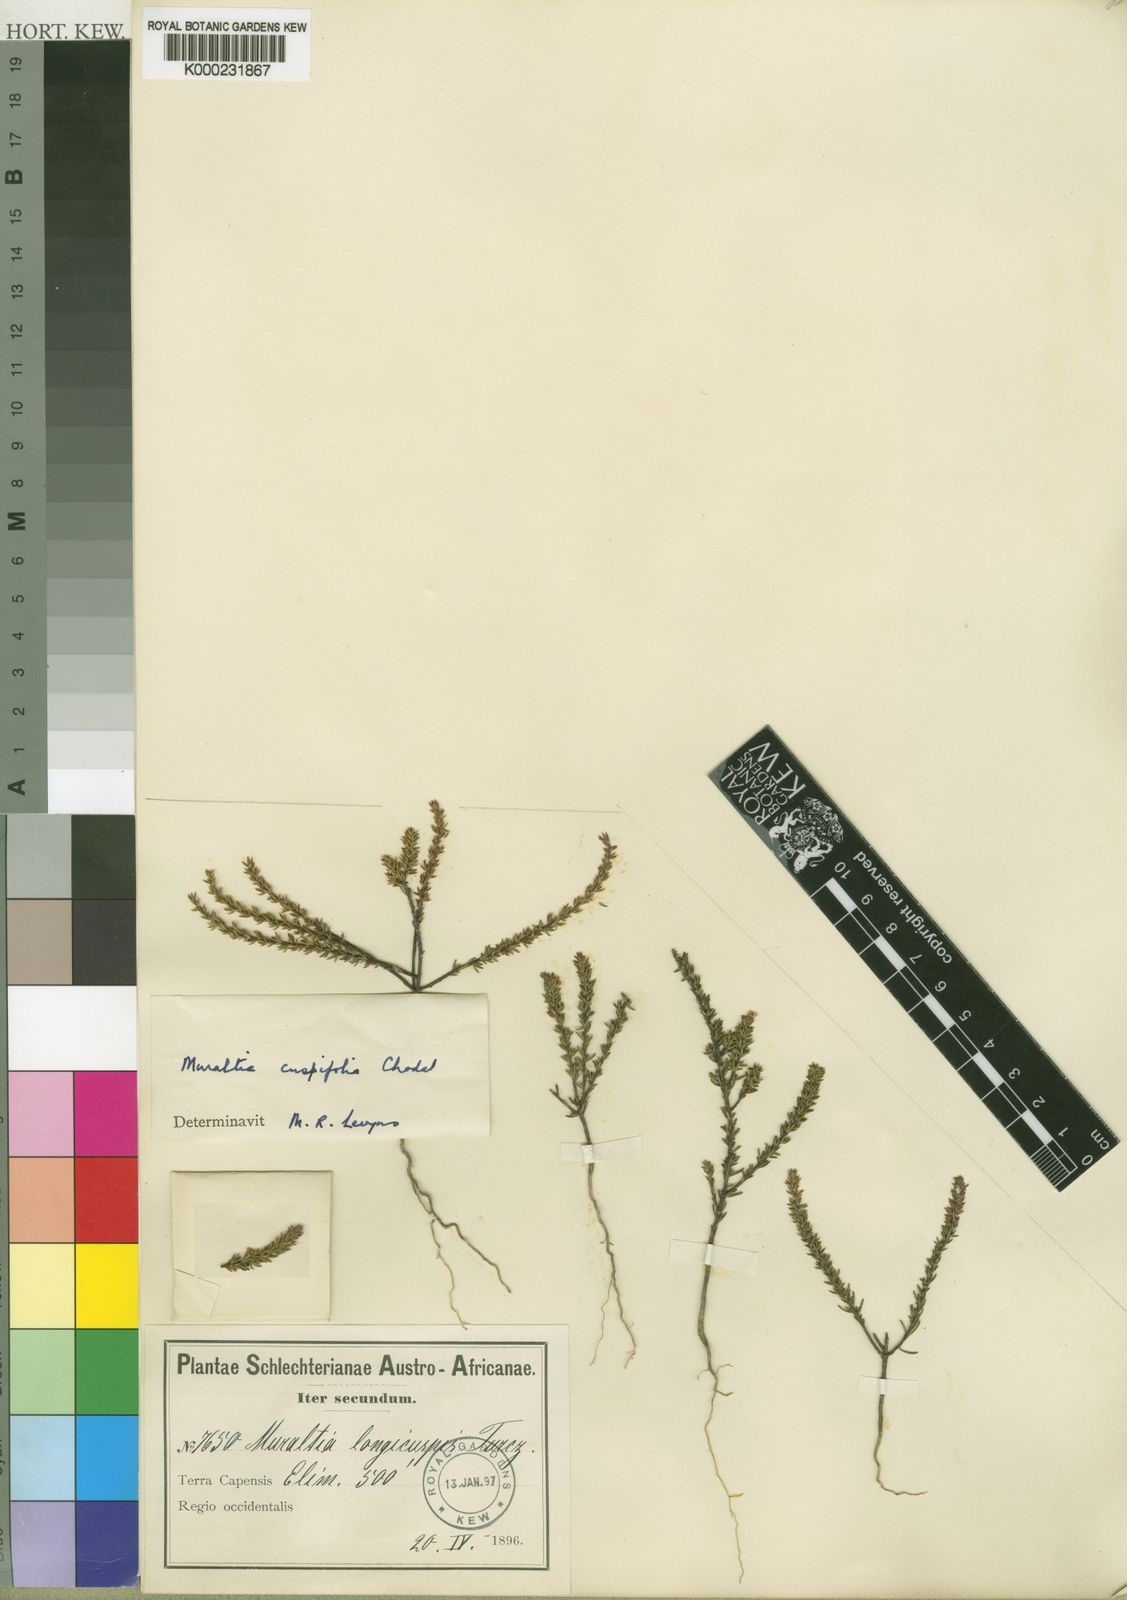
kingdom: Plantae
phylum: Tracheophyta
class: Magnoliopsida
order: Fabales
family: Polygalaceae
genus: Muraltia
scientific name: Muraltia cuspifolia
